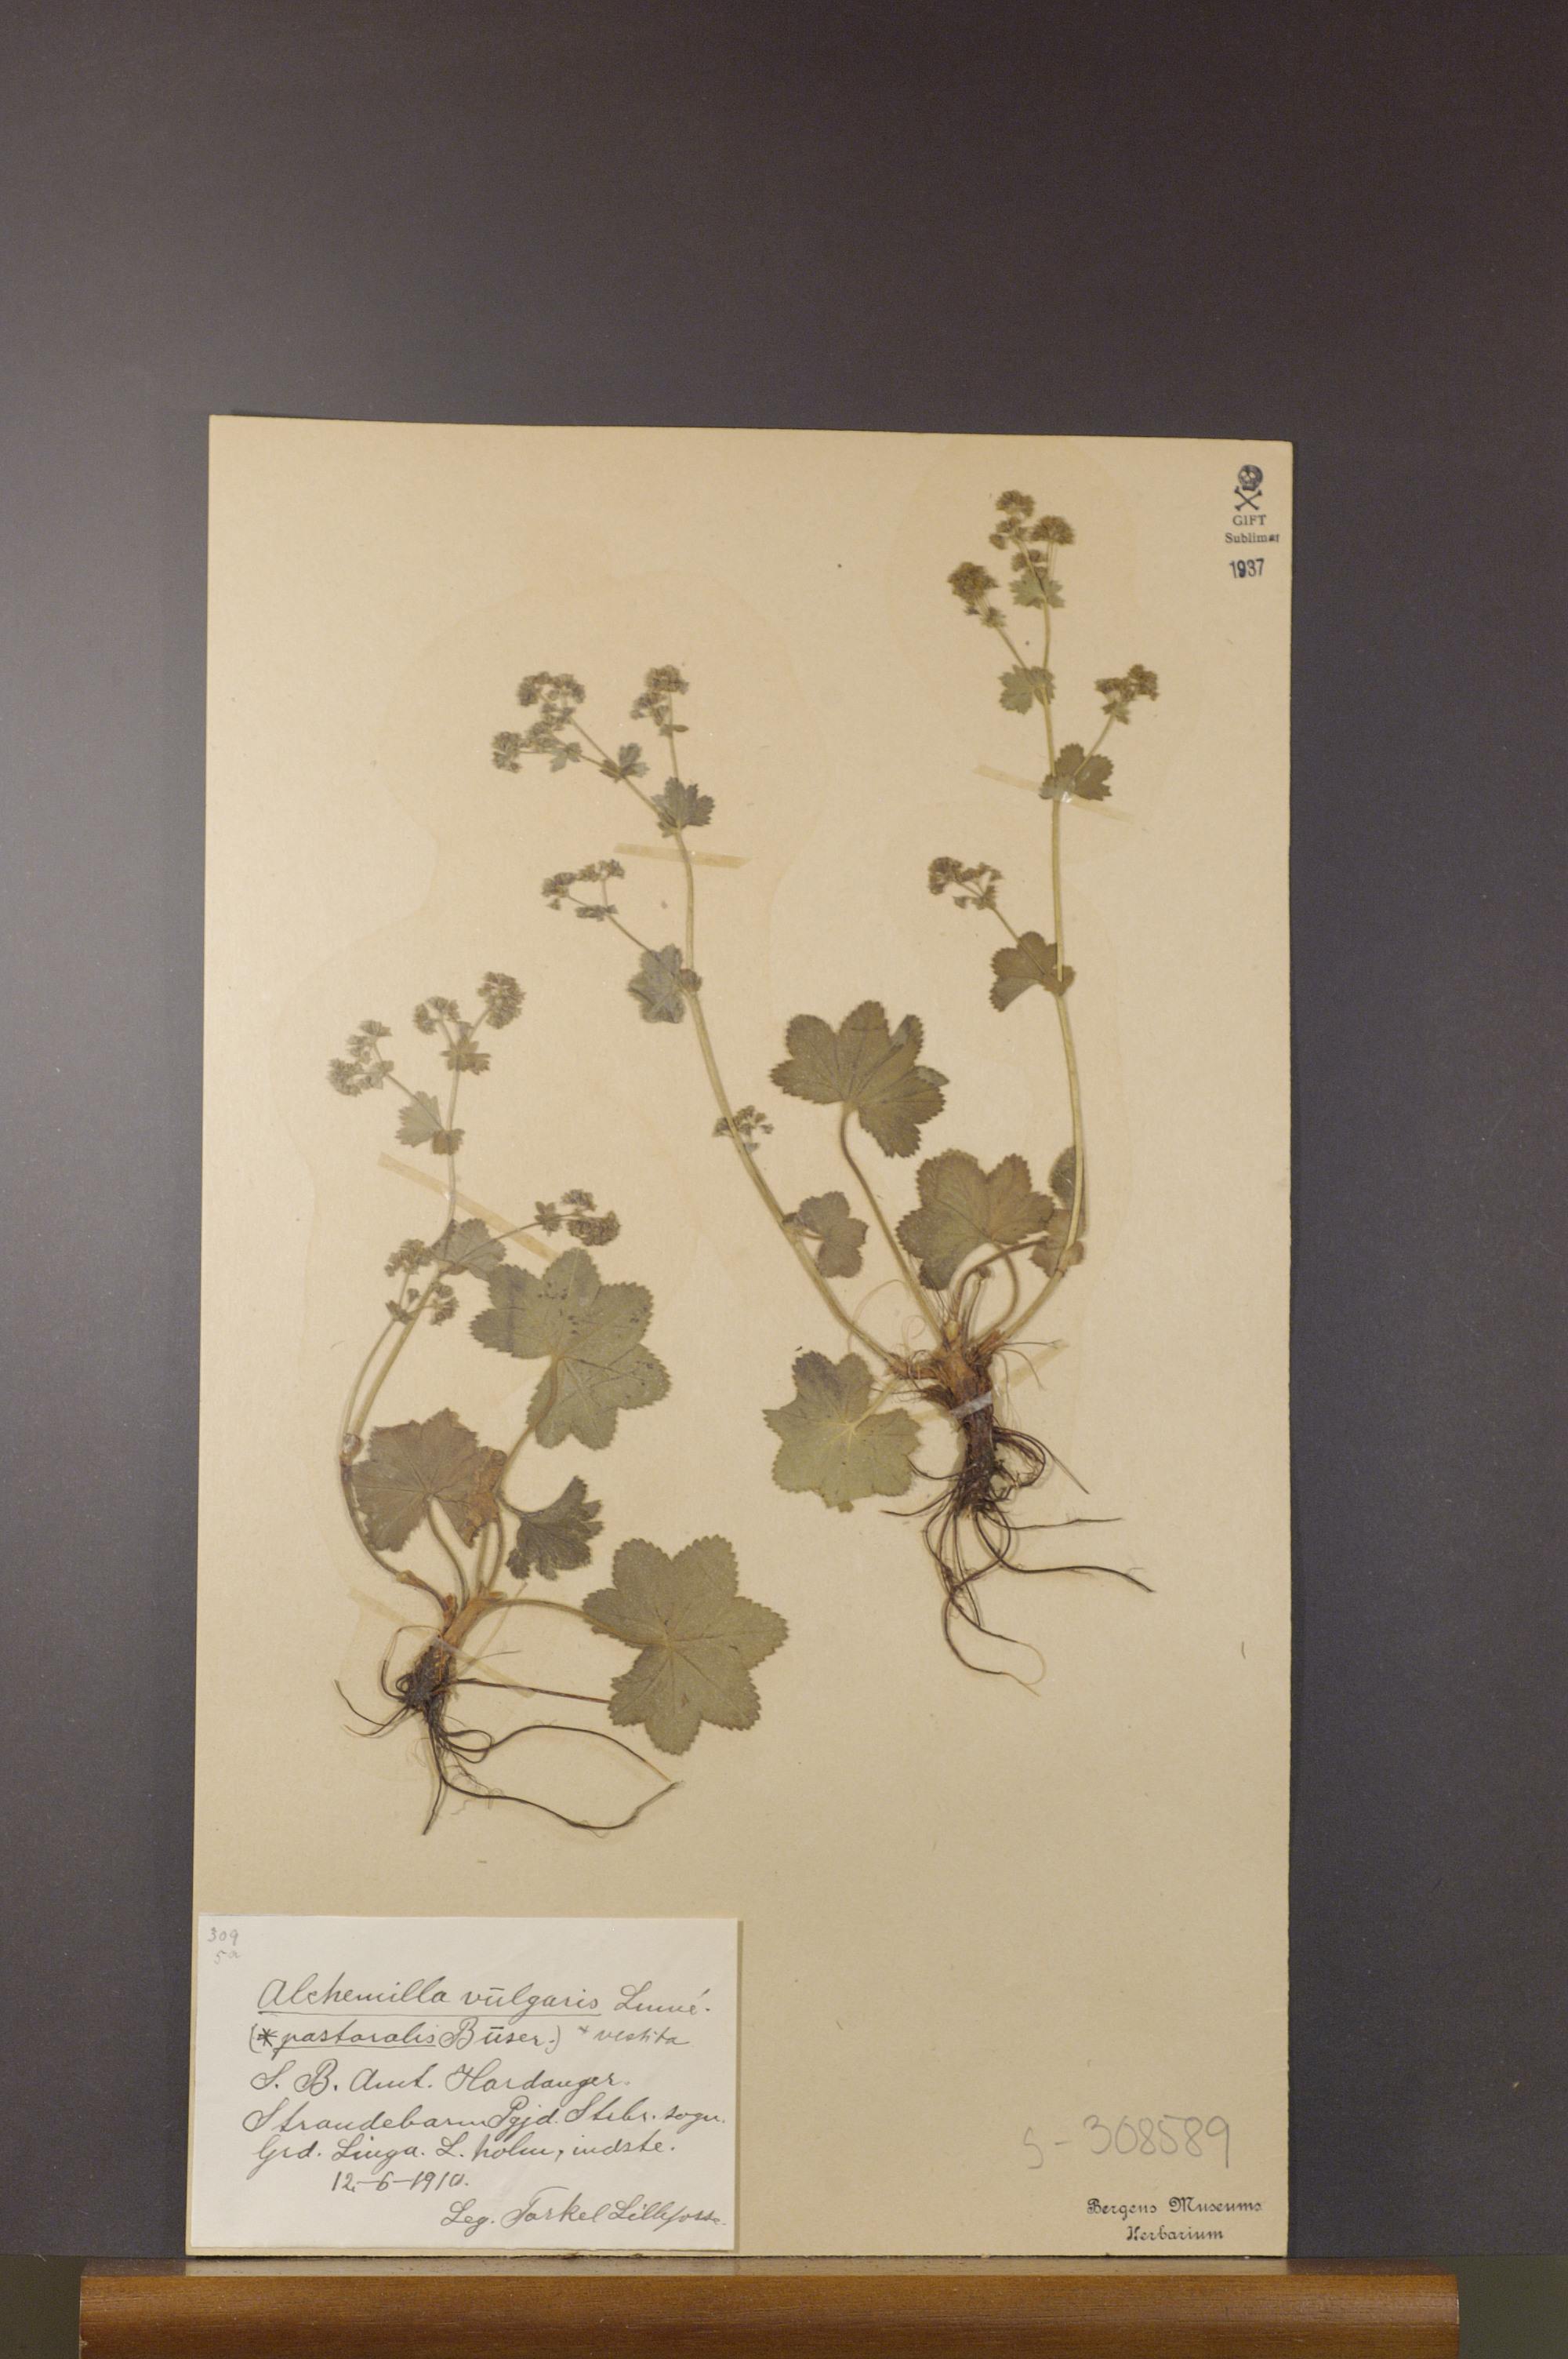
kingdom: Plantae
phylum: Tracheophyta
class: Magnoliopsida
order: Rosales
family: Rosaceae
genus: Alchemilla
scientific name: Alchemilla filicaulis
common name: Hairy lady's-mantle
